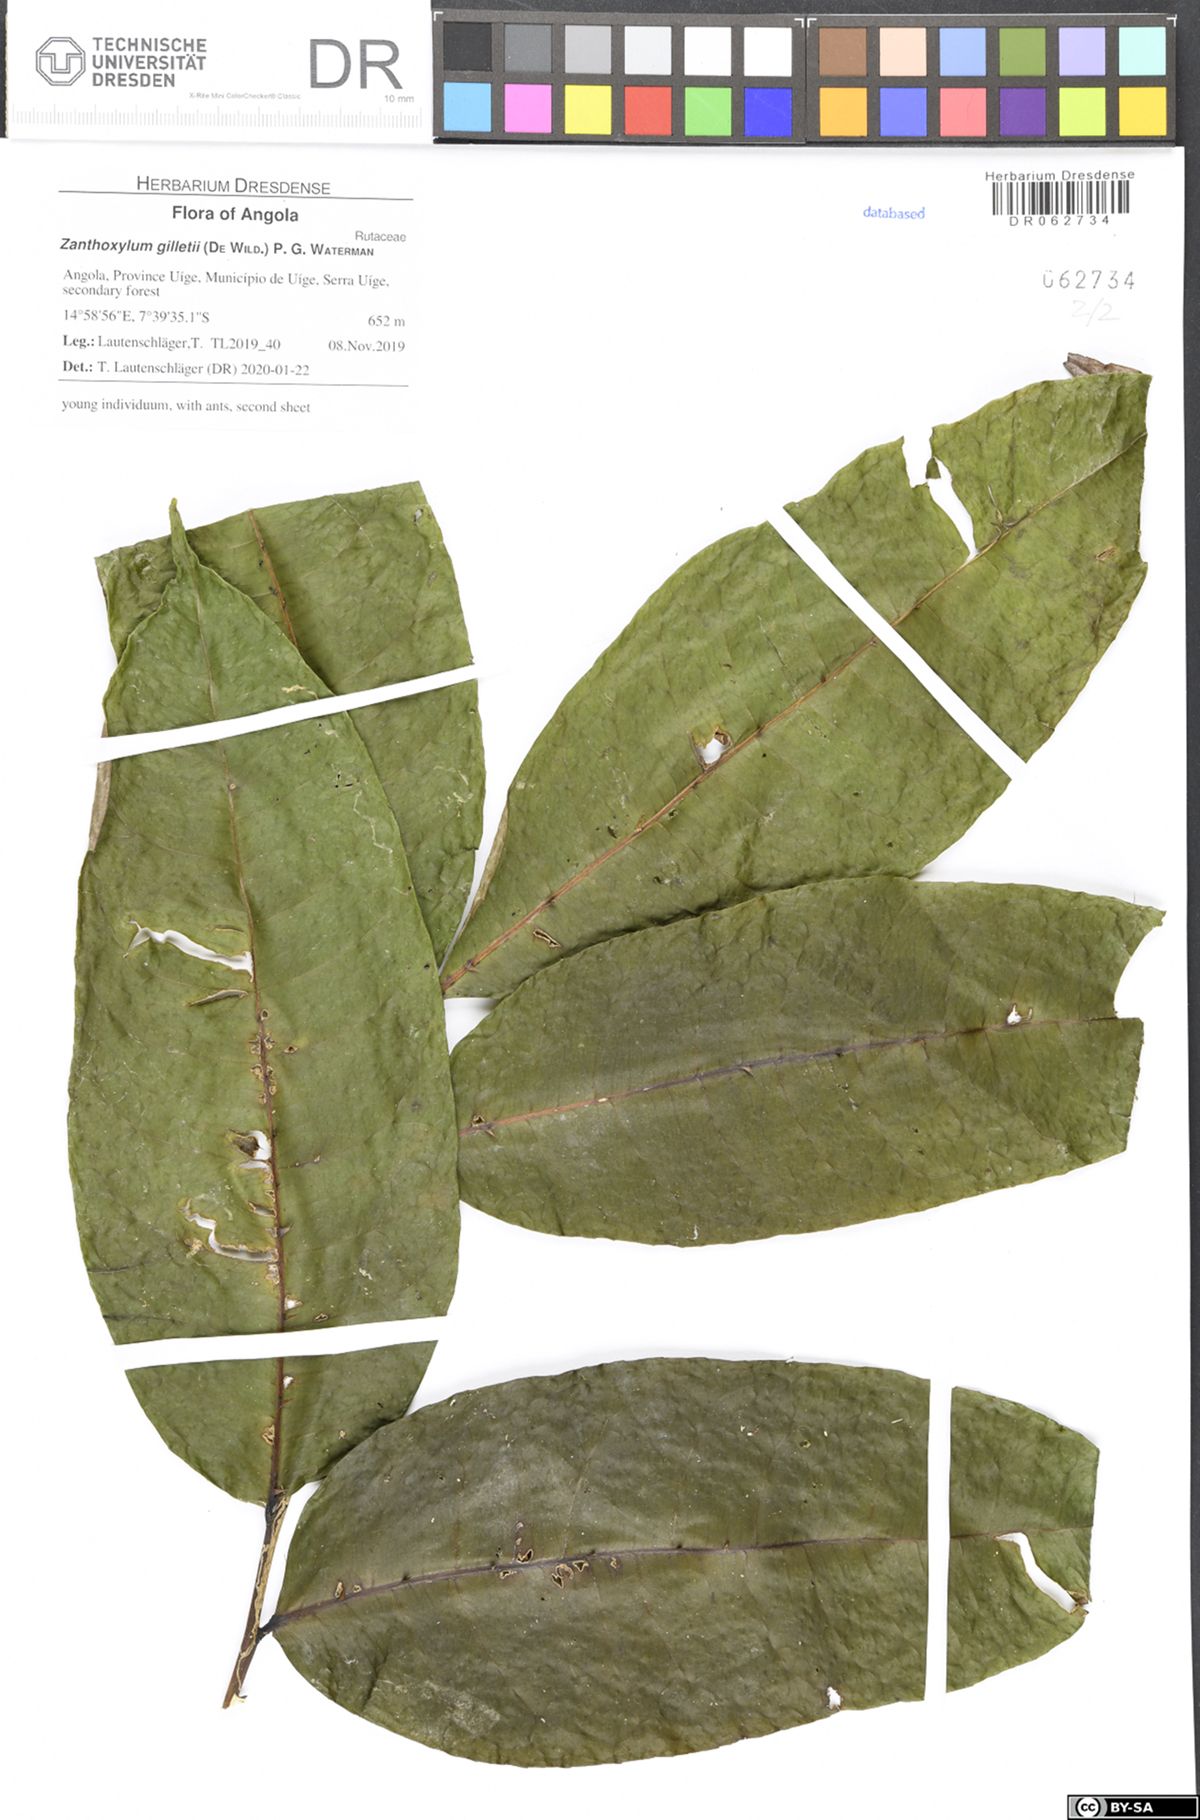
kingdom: Plantae
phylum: Tracheophyta
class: Magnoliopsida
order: Sapindales
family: Rutaceae
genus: Zanthoxylum
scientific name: Zanthoxylum gilletii
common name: African satinwood
